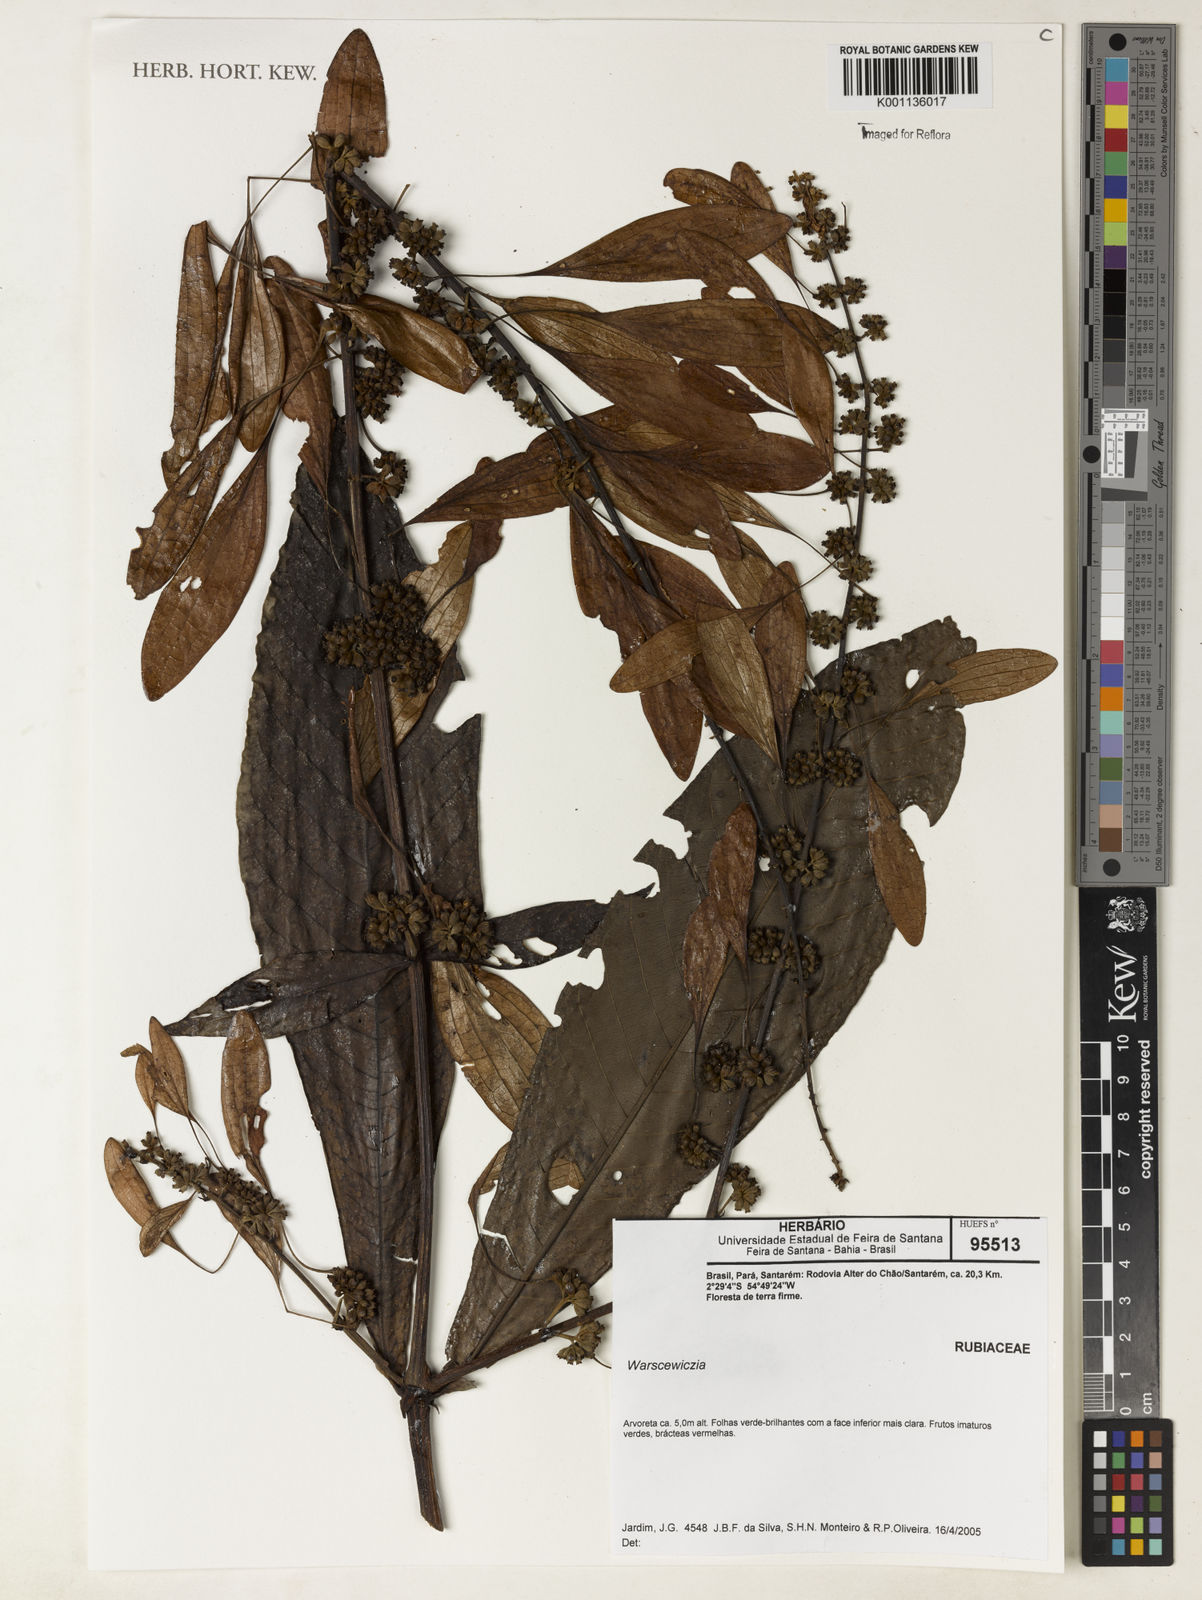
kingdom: Plantae
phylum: Tracheophyta
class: Magnoliopsida
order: Gentianales
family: Rubiaceae
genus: Warszewiczia
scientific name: Warszewiczia
